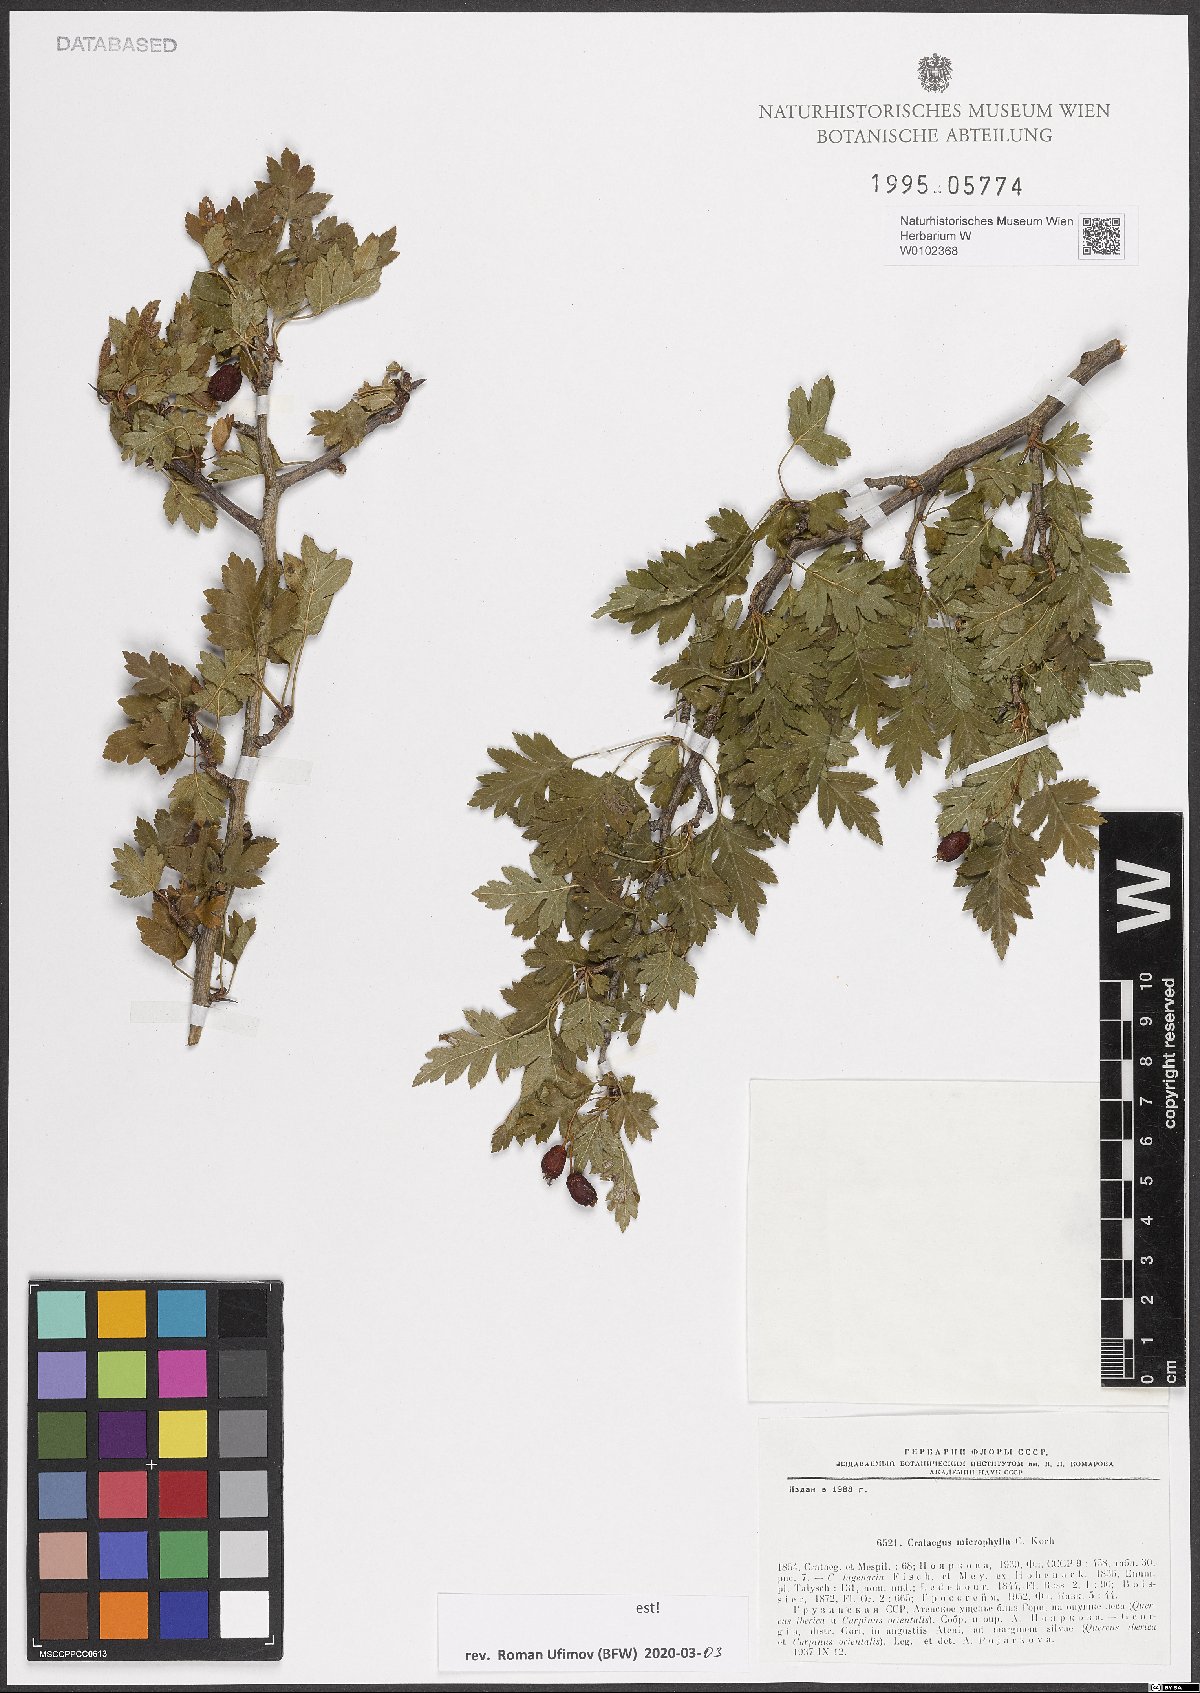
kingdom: Plantae
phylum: Tracheophyta
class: Magnoliopsida
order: Rosales
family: Rosaceae
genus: Crataegus
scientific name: Crataegus microphylla
